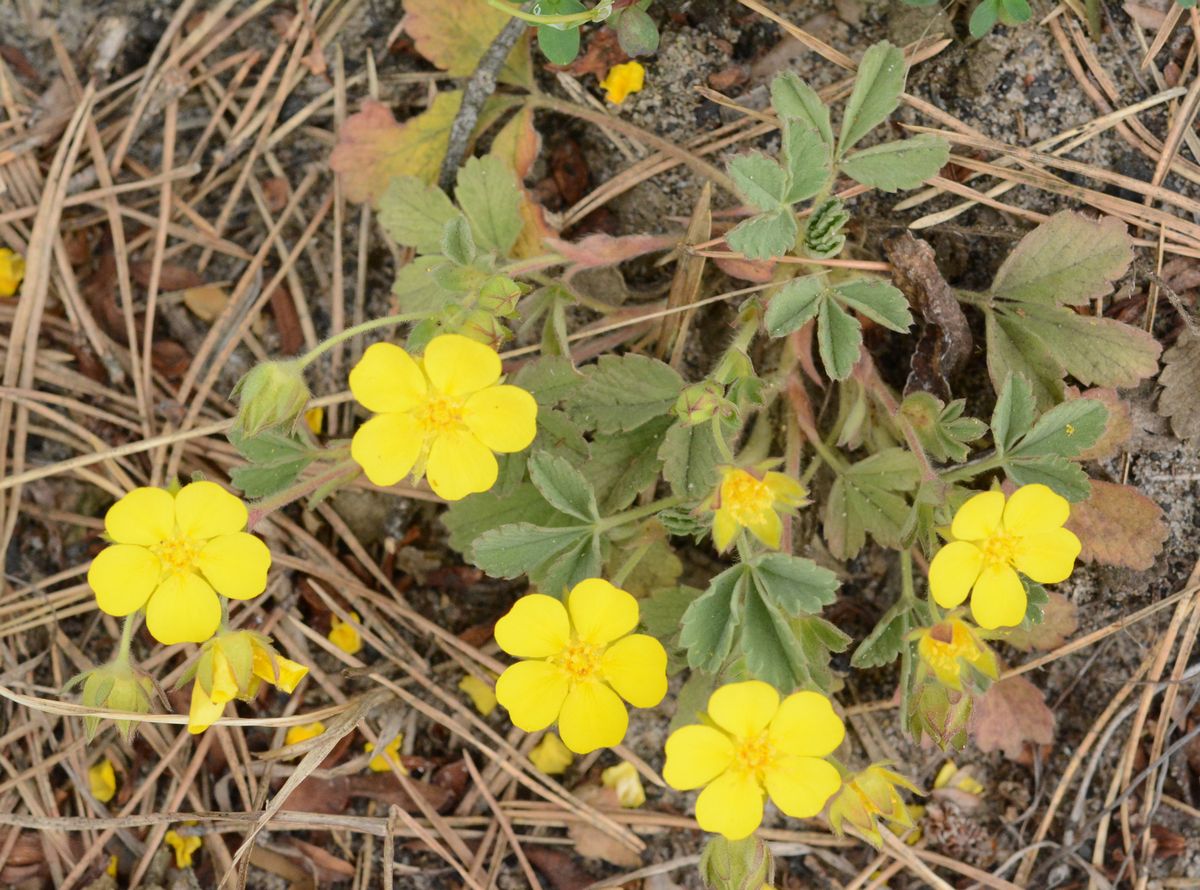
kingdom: Plantae
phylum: Tracheophyta
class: Magnoliopsida
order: Rosales
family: Rosaceae
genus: Potentilla
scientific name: Potentilla cinerea
